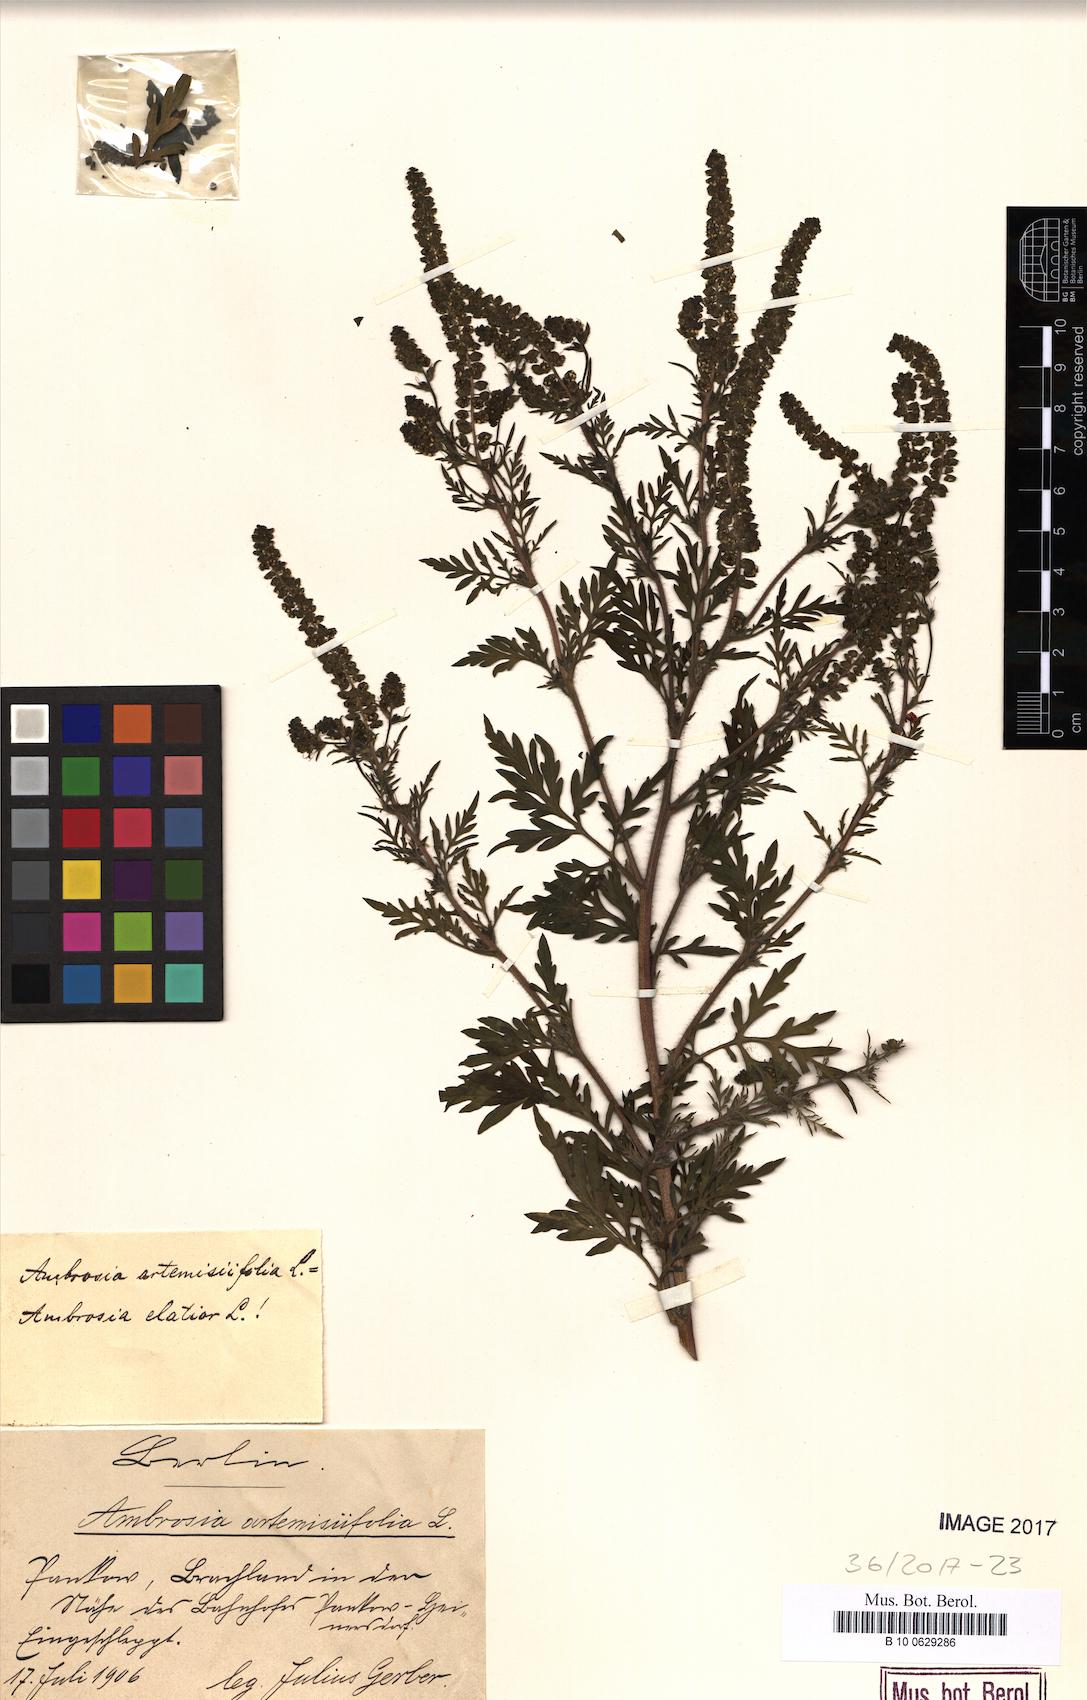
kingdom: Plantae
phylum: Tracheophyta
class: Magnoliopsida
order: Asterales
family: Asteraceae
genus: Ambrosia
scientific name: Ambrosia artemisiifolia
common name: Annual ragweed
